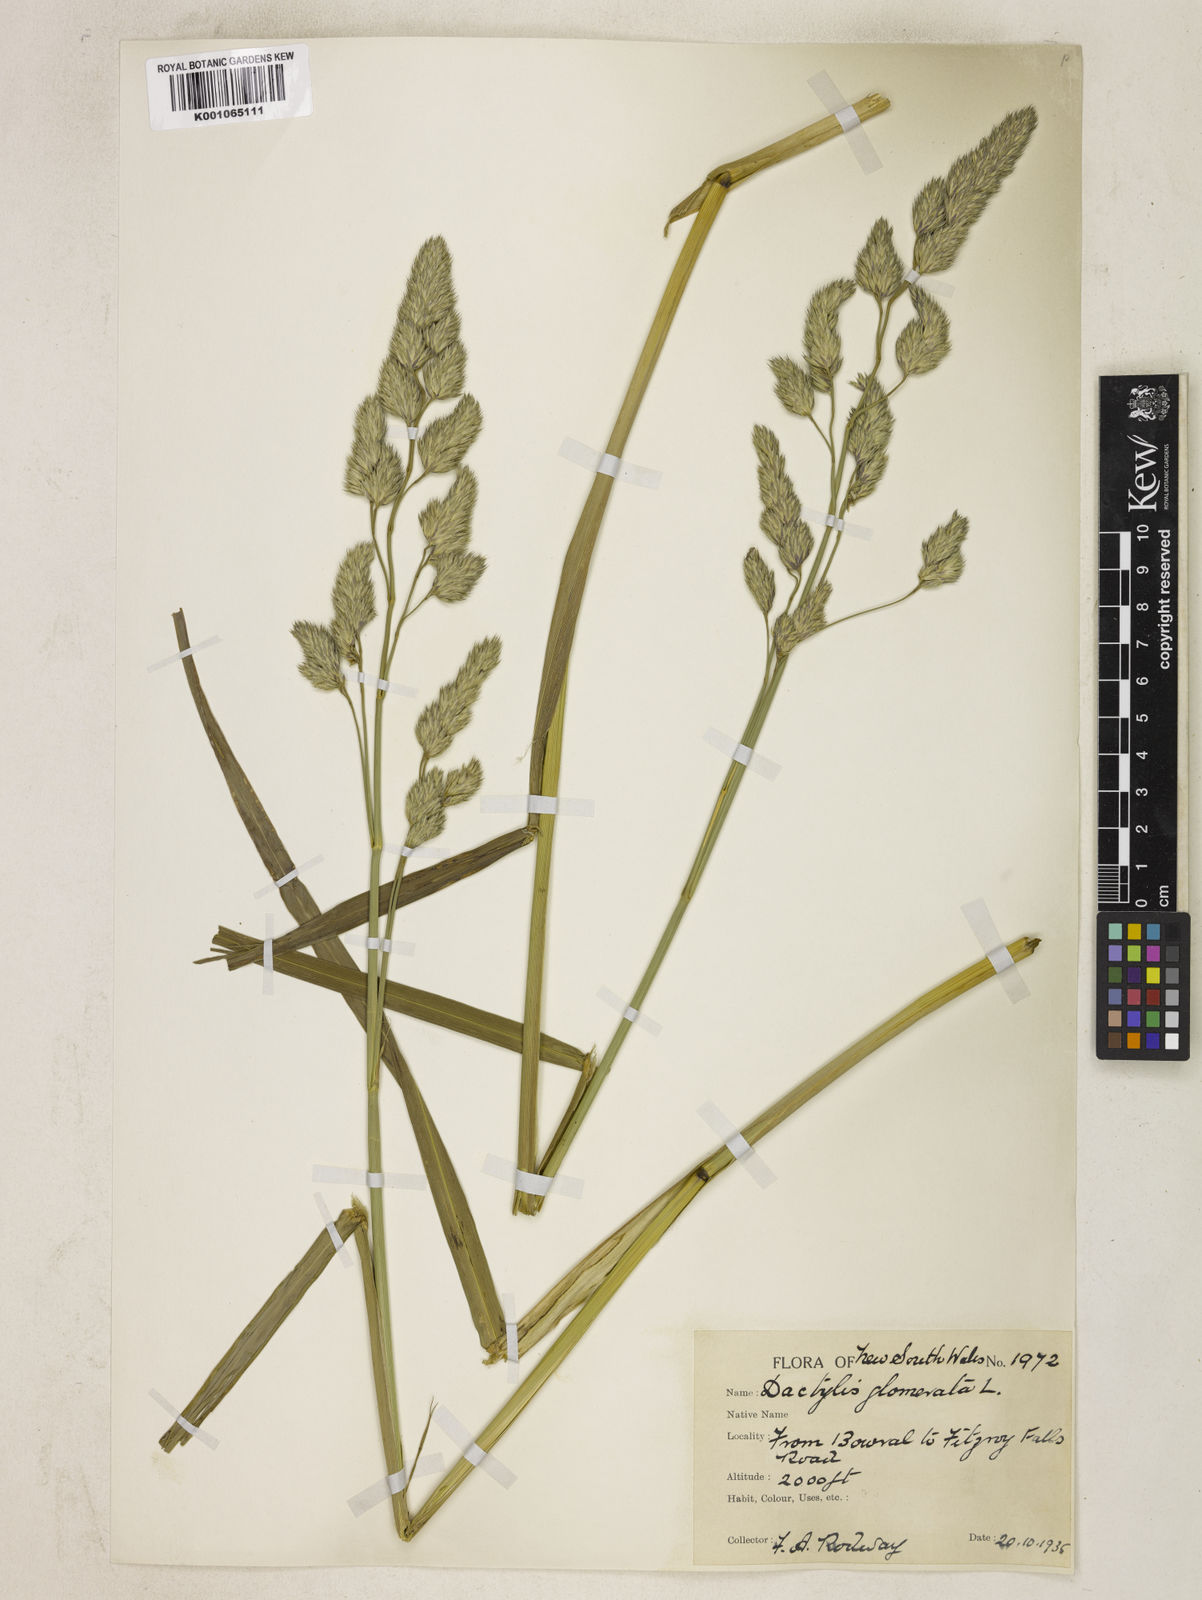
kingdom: Plantae
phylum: Tracheophyta
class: Liliopsida
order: Poales
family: Poaceae
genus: Dactylis
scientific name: Dactylis glomerata
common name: Orchardgrass
